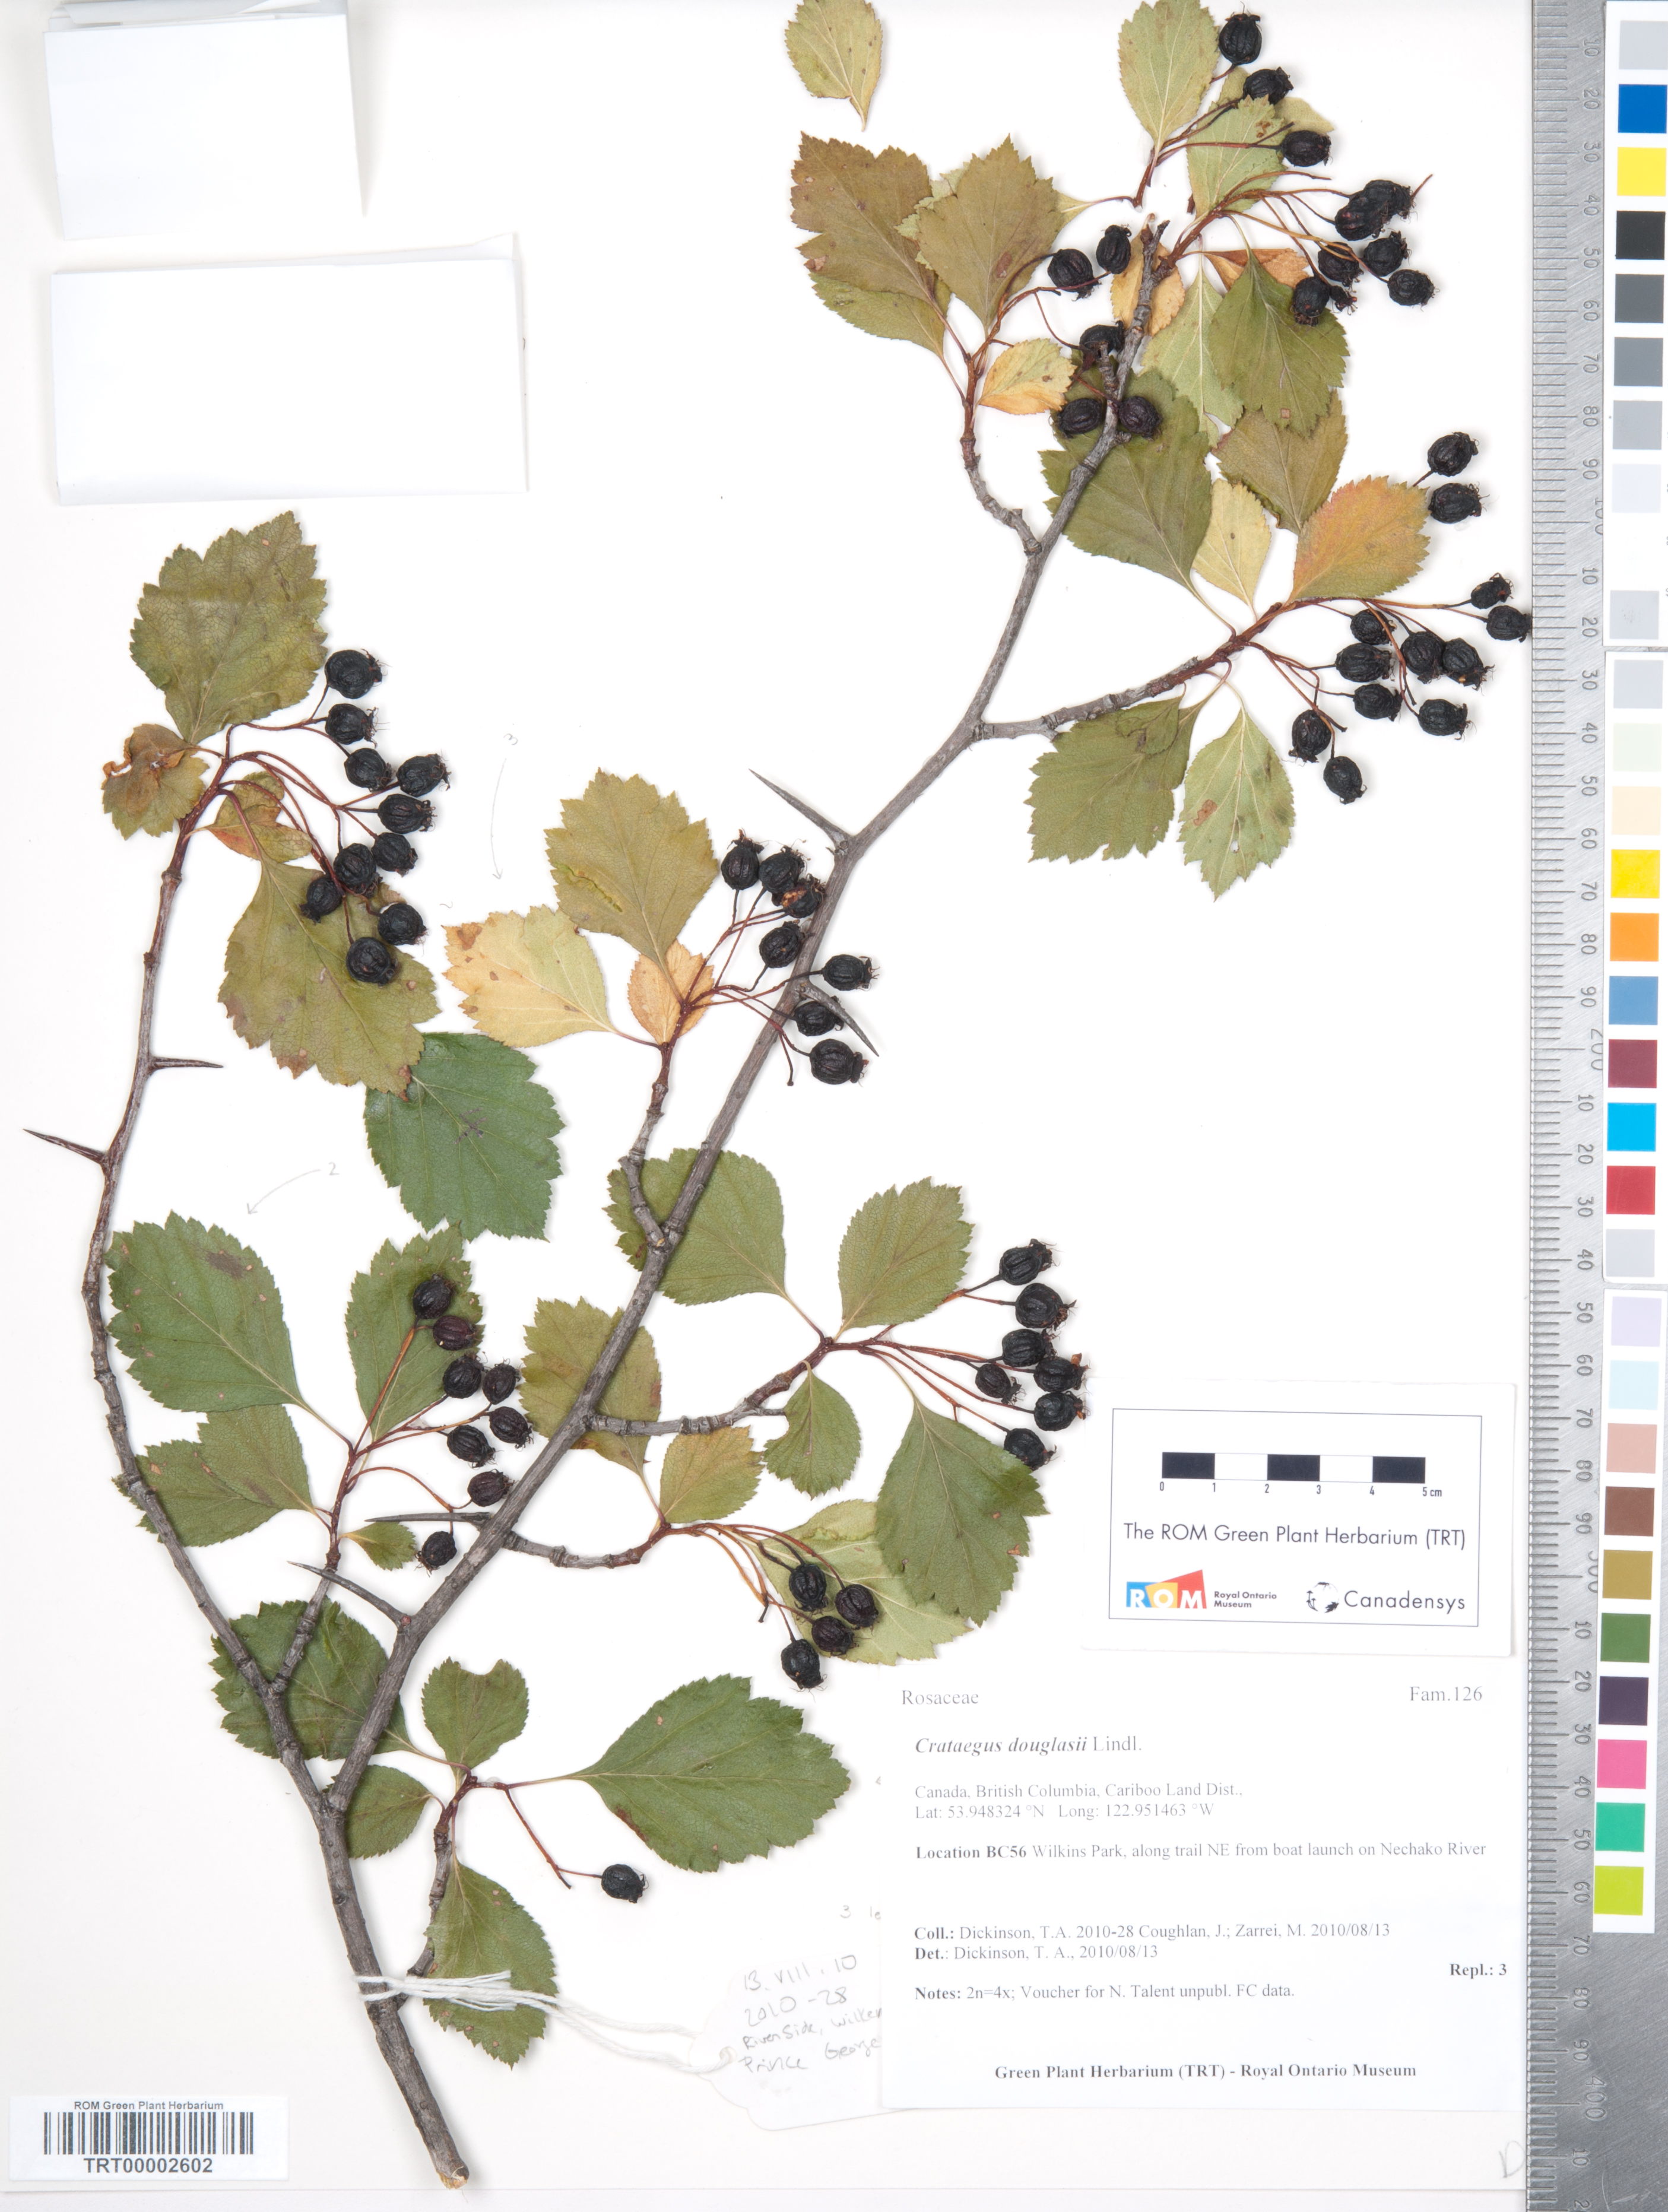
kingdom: Plantae
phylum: Tracheophyta
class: Magnoliopsida
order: Rosales
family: Rosaceae
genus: Crataegus
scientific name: Crataegus douglasii
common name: Black hawthorn
